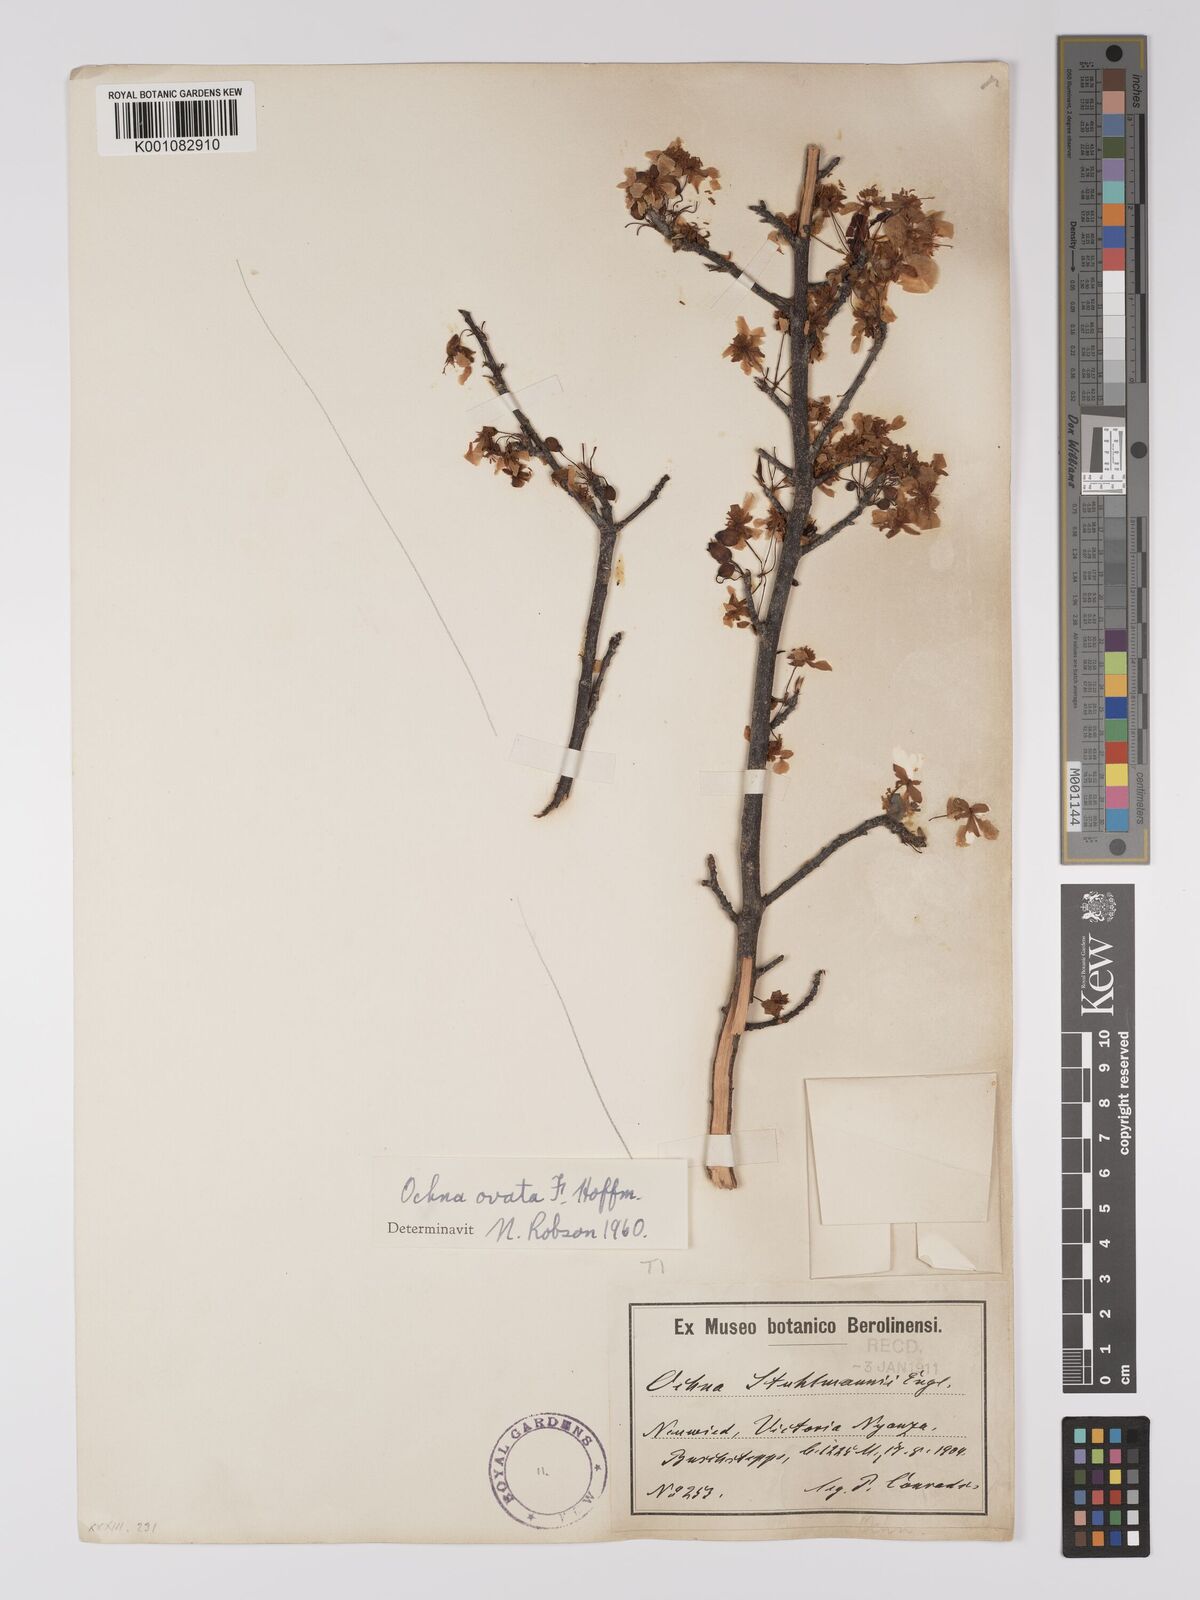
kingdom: Plantae
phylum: Tracheophyta
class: Magnoliopsida
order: Malpighiales
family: Ochnaceae
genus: Ochna
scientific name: Ochna ovata
